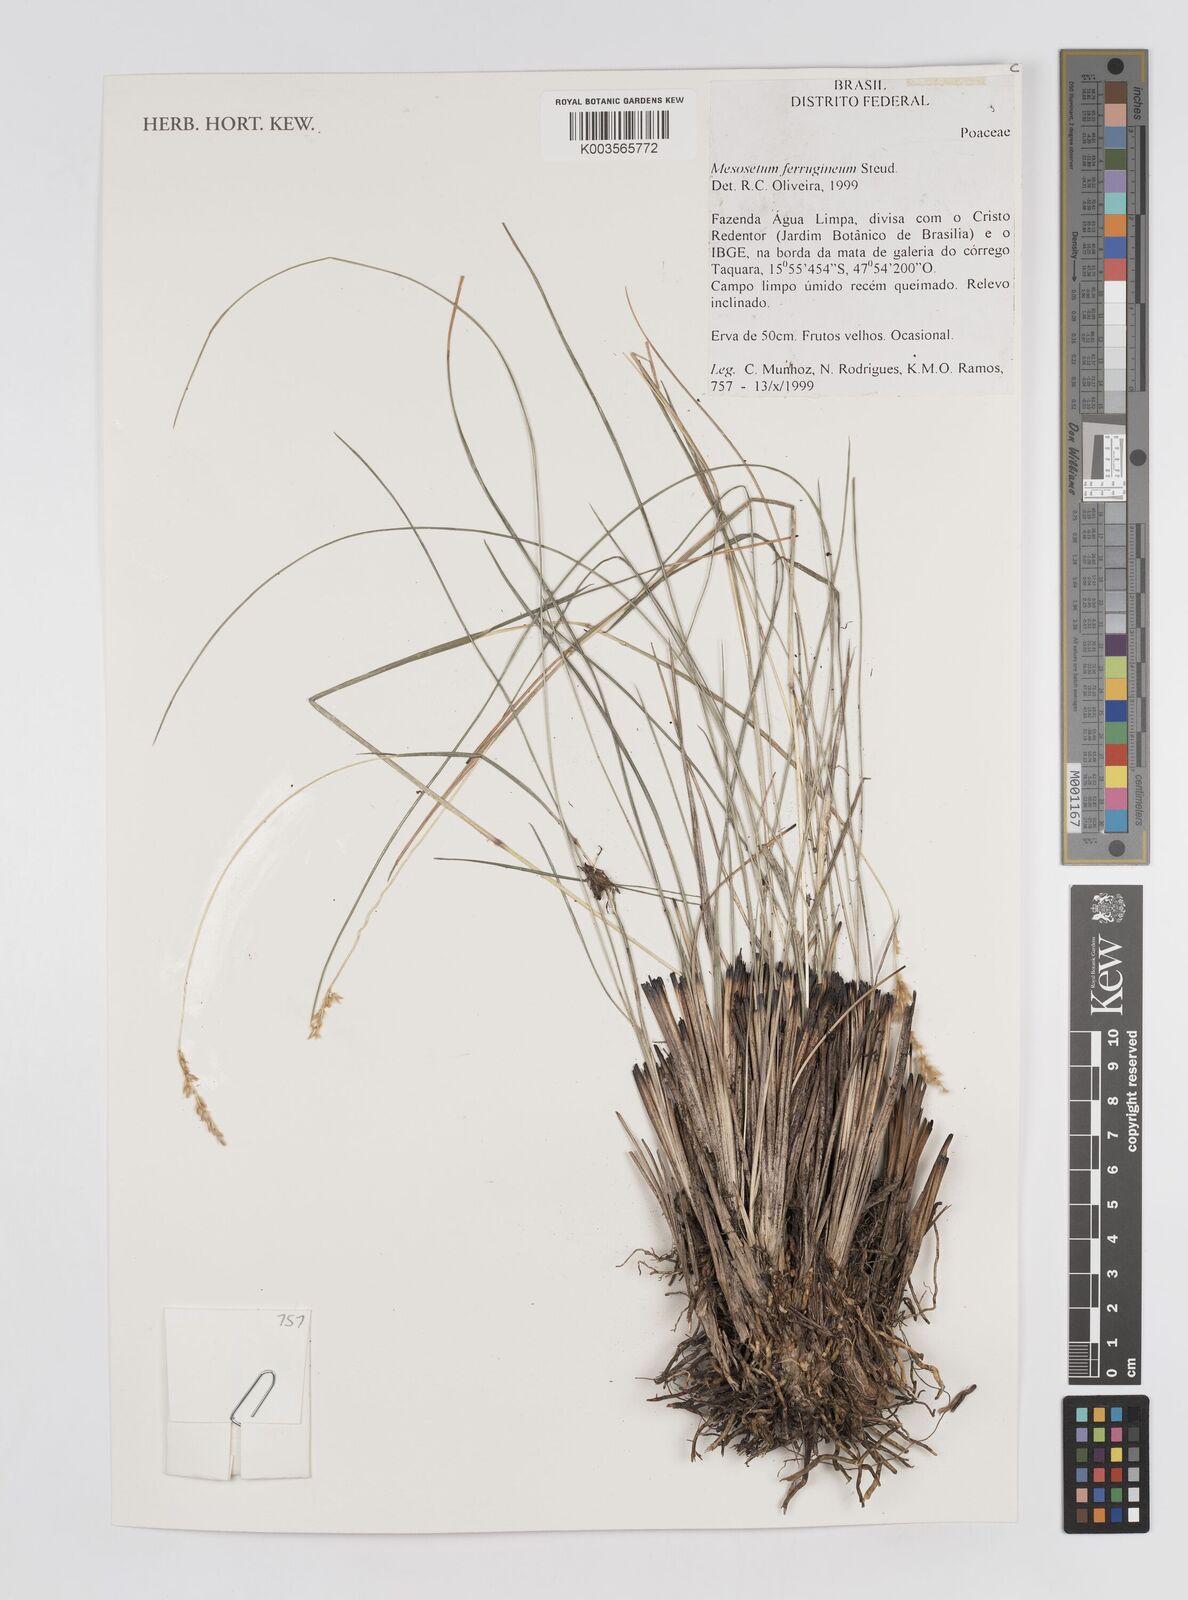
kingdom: Plantae
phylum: Tracheophyta
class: Liliopsida
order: Poales
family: Poaceae
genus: Mesosetum
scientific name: Mesosetum ferrugineum
